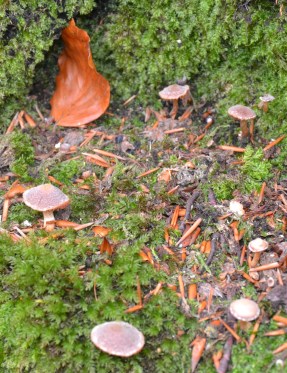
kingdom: Fungi
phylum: Basidiomycota
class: Agaricomycetes
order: Agaricales
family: Cortinariaceae
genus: Cortinarius
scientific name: Cortinarius
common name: pelargonie-slørhat
